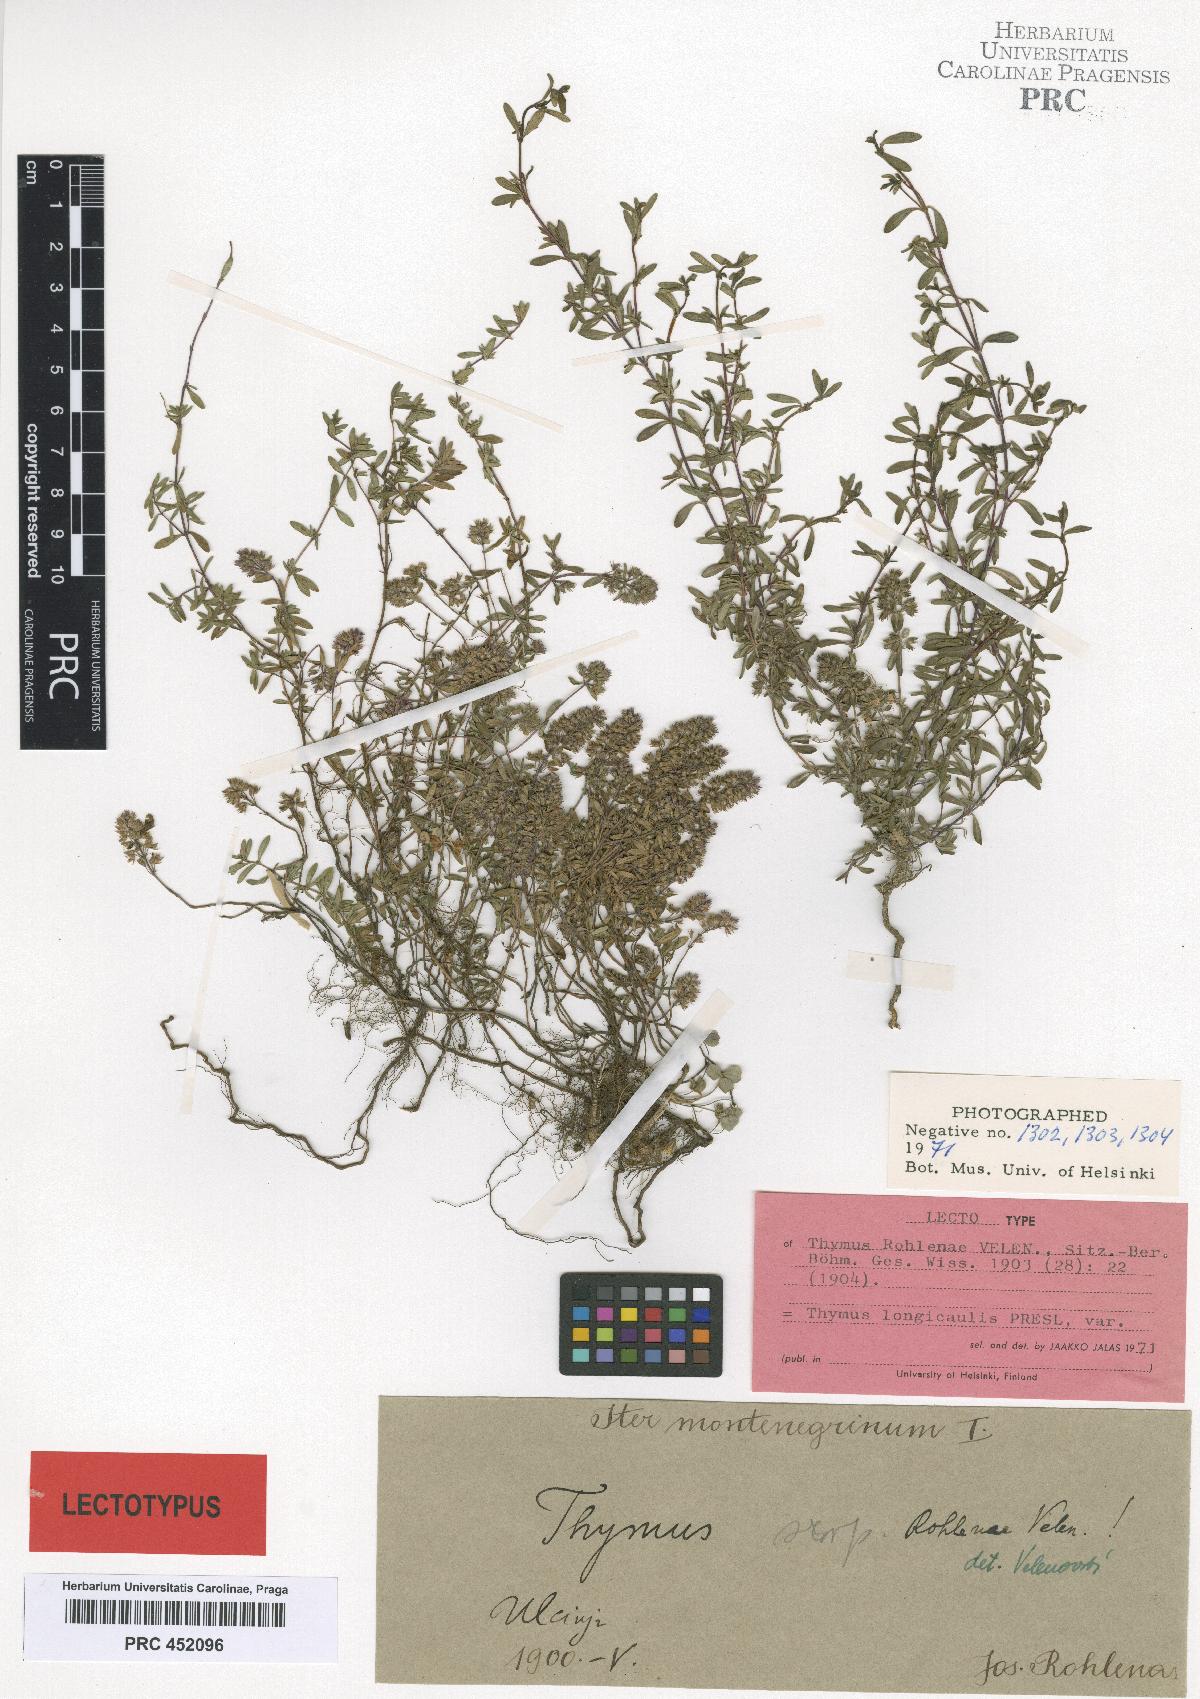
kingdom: Plantae
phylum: Tracheophyta
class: Magnoliopsida
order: Lamiales
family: Lamiaceae
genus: Thymus
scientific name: Thymus longicaulis
